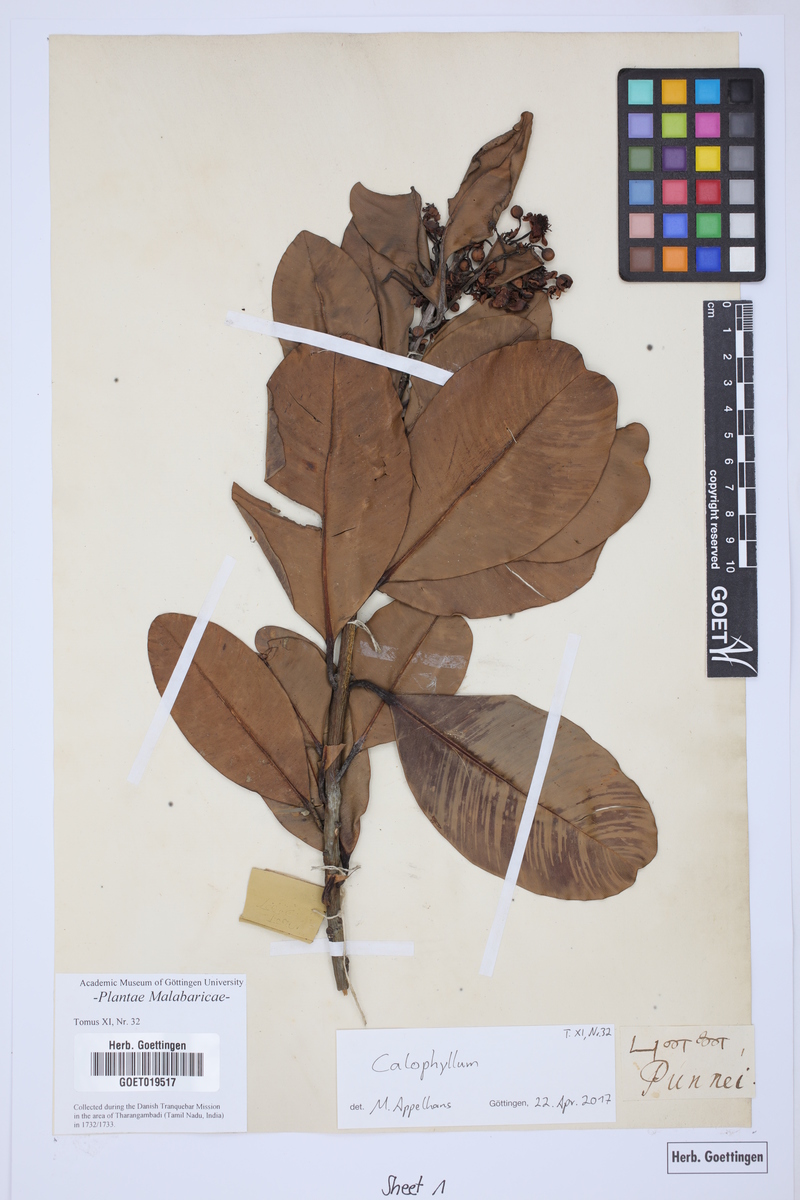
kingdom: Plantae
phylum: Tracheophyta
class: Magnoliopsida
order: Malpighiales
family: Calophyllaceae
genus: Calophyllum
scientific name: Calophyllum
